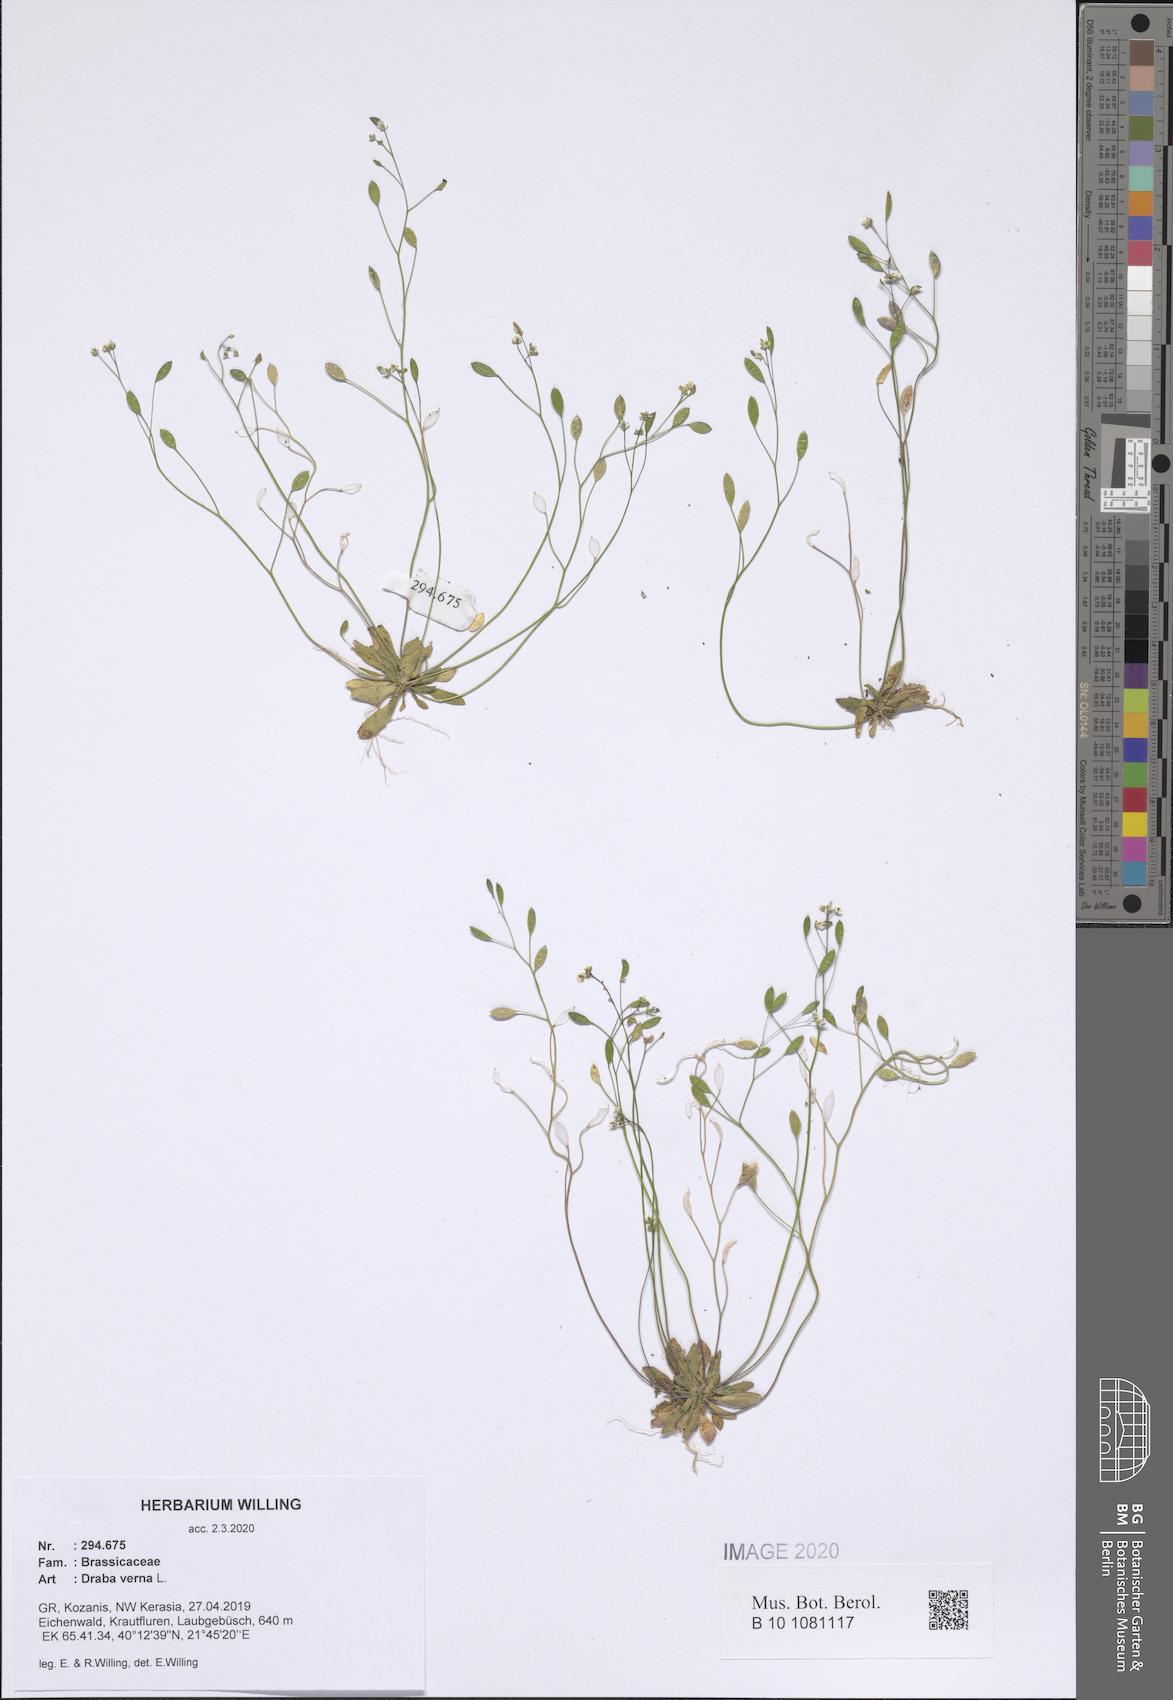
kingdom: Plantae
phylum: Tracheophyta
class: Magnoliopsida
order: Brassicales
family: Brassicaceae
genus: Draba
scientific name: Draba verna
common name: Spring draba
